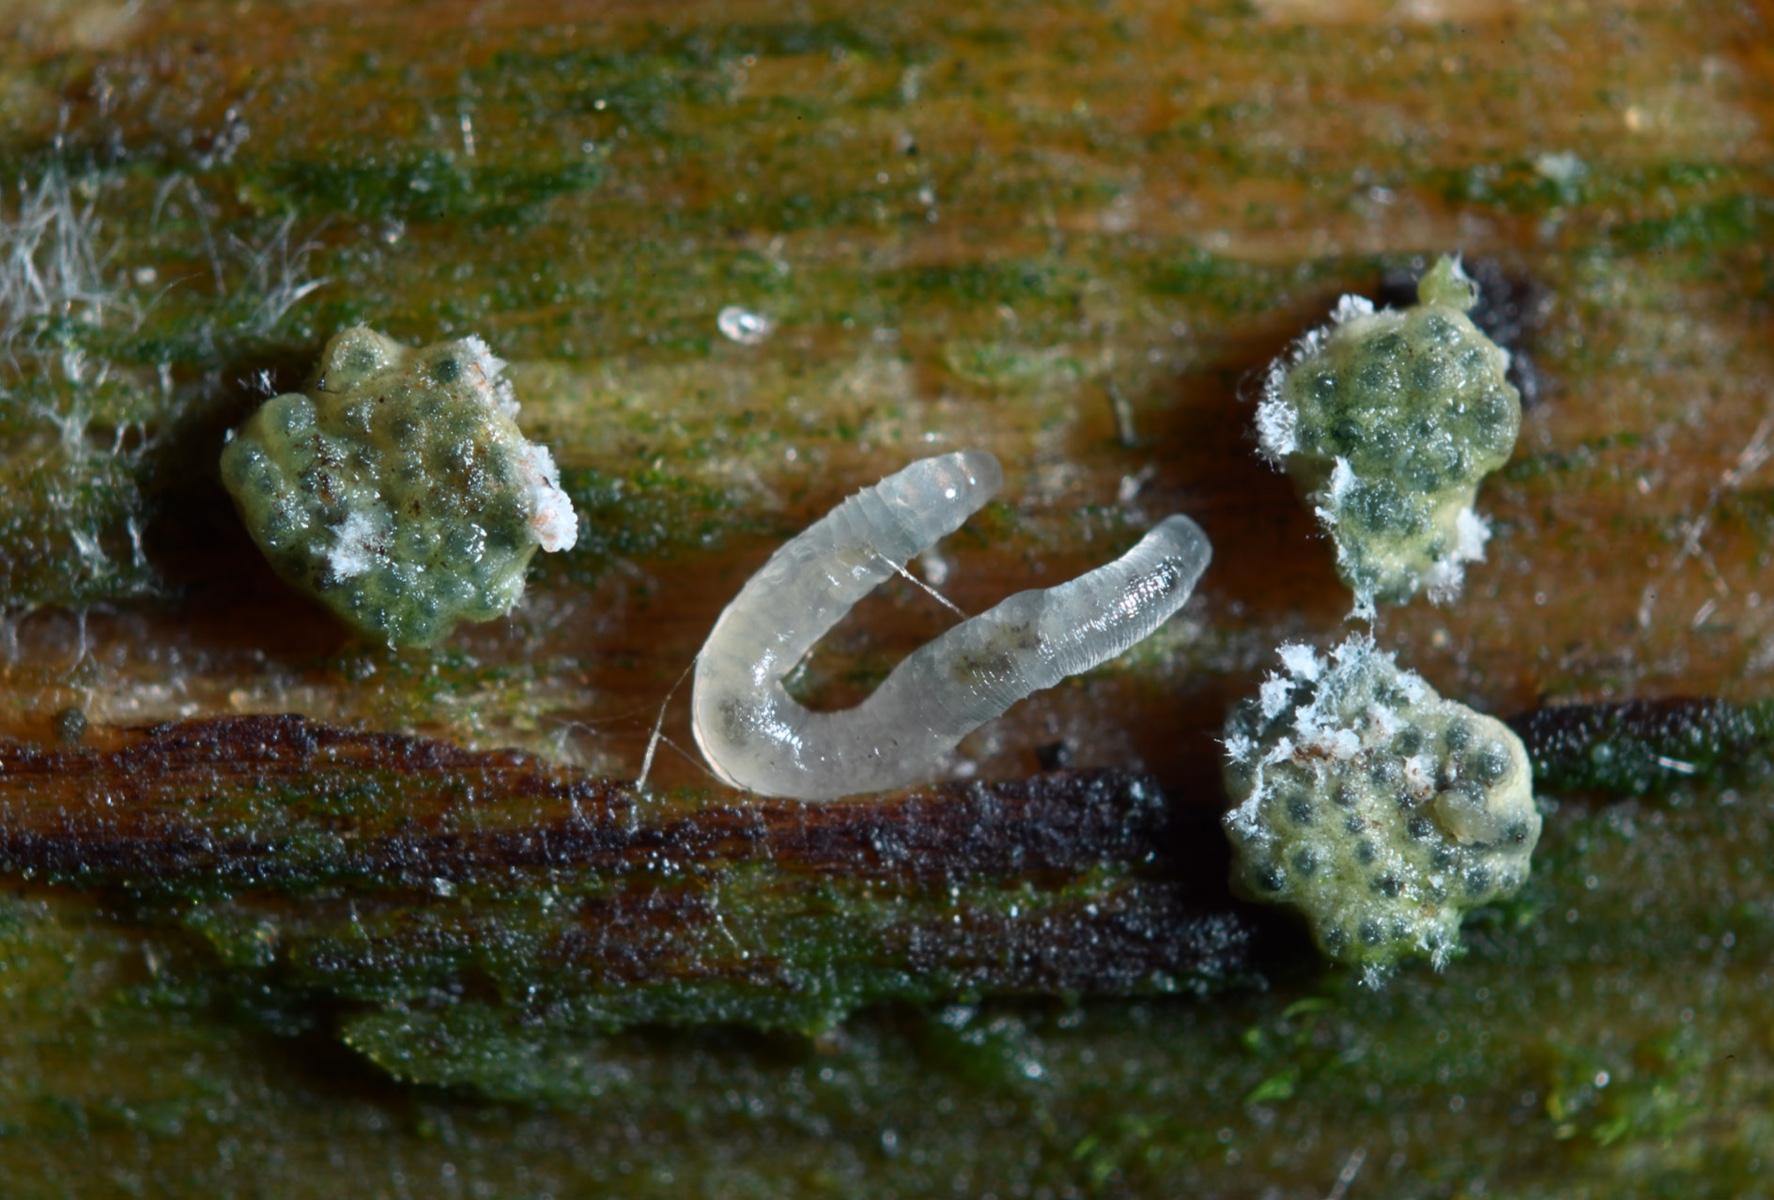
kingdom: Fungi
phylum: Ascomycota
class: Sordariomycetes
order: Hypocreales
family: Hypocreaceae
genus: Trichoderma
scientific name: Trichoderma sinuosum
